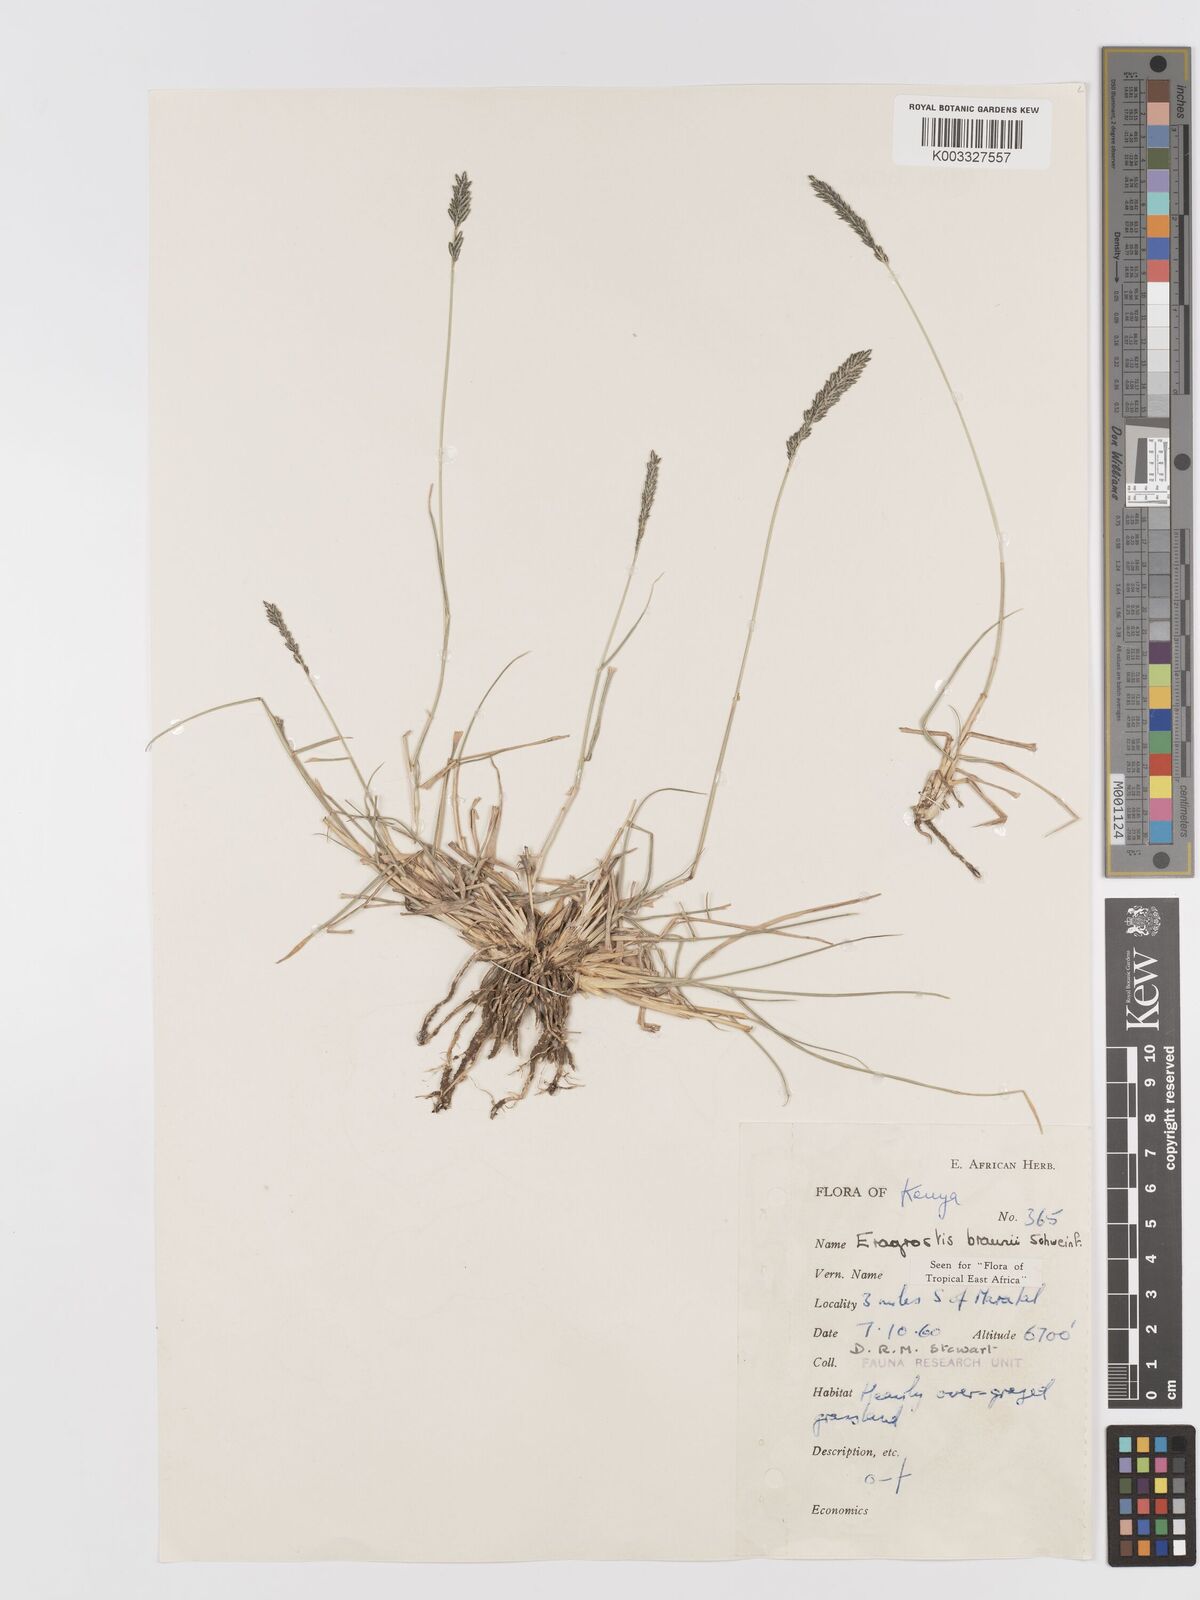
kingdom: Plantae
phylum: Tracheophyta
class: Liliopsida
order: Poales
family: Poaceae
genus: Eragrostis
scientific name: Eragrostis braunii
